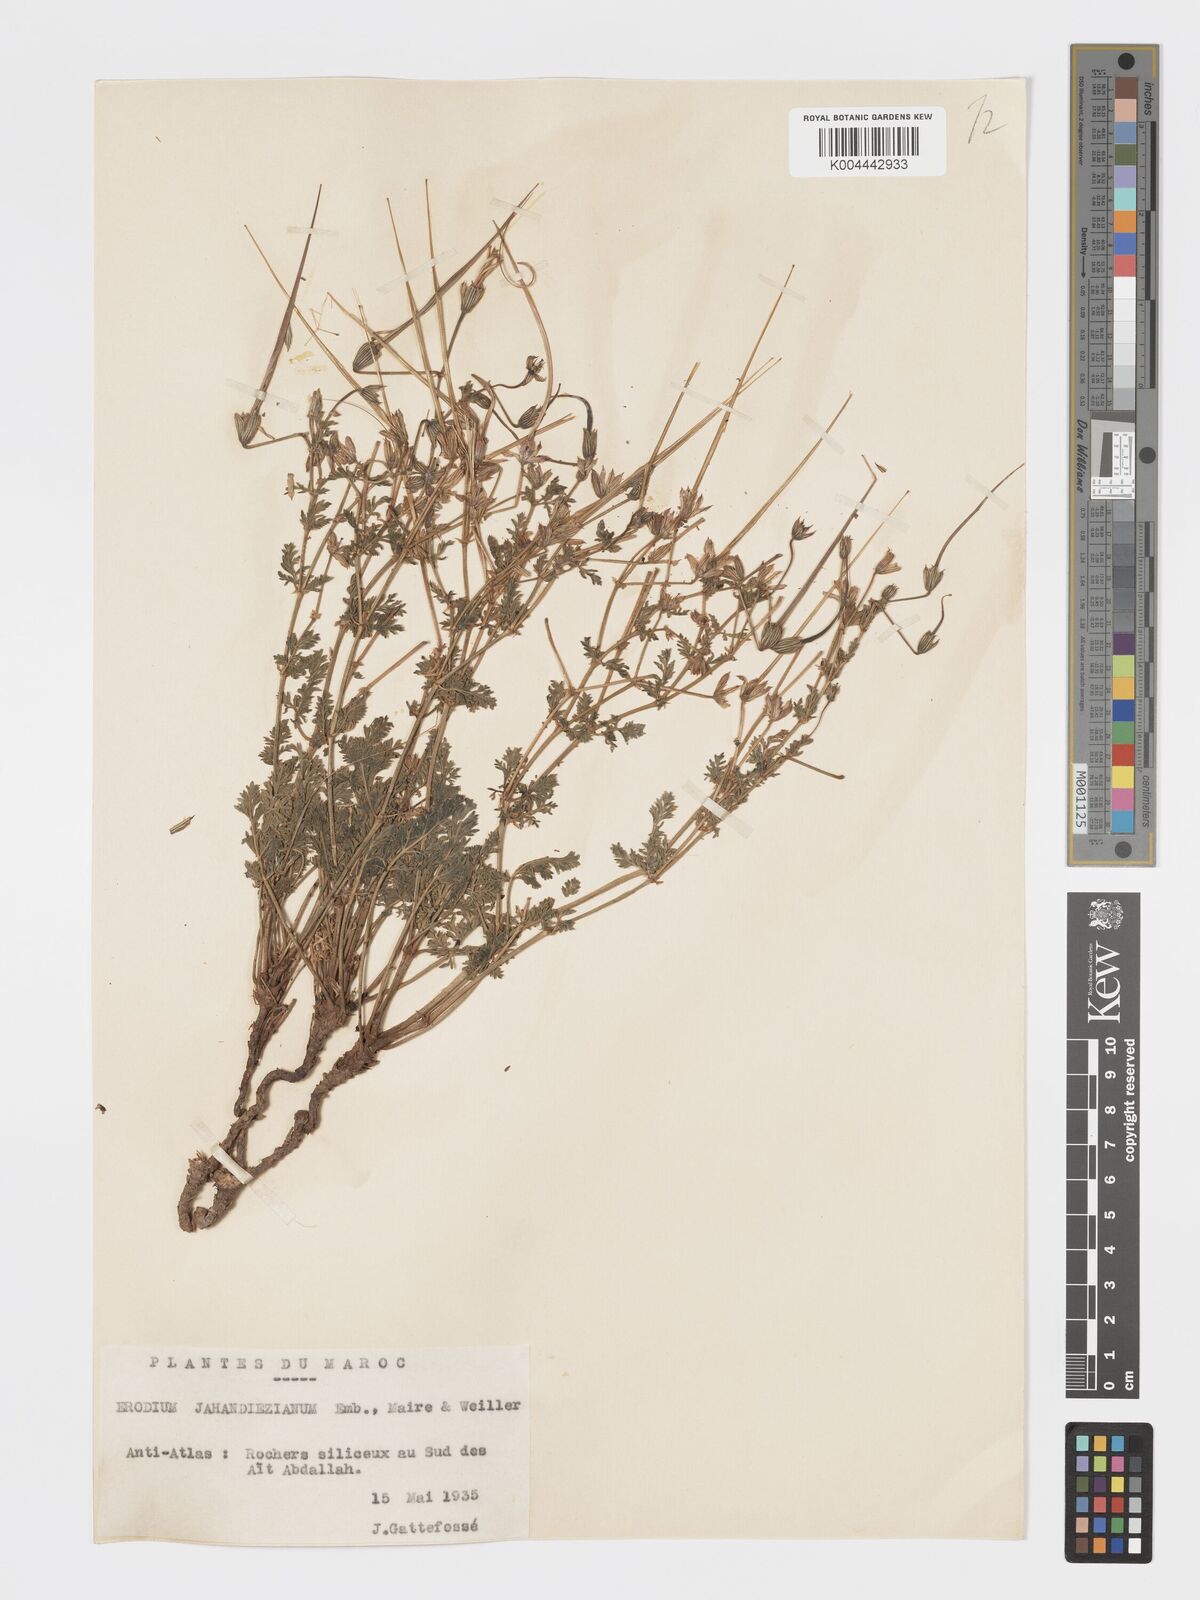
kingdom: Plantae
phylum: Tracheophyta
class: Magnoliopsida
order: Geraniales
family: Geraniaceae
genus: Erodium
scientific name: Erodium jahandiezianum
